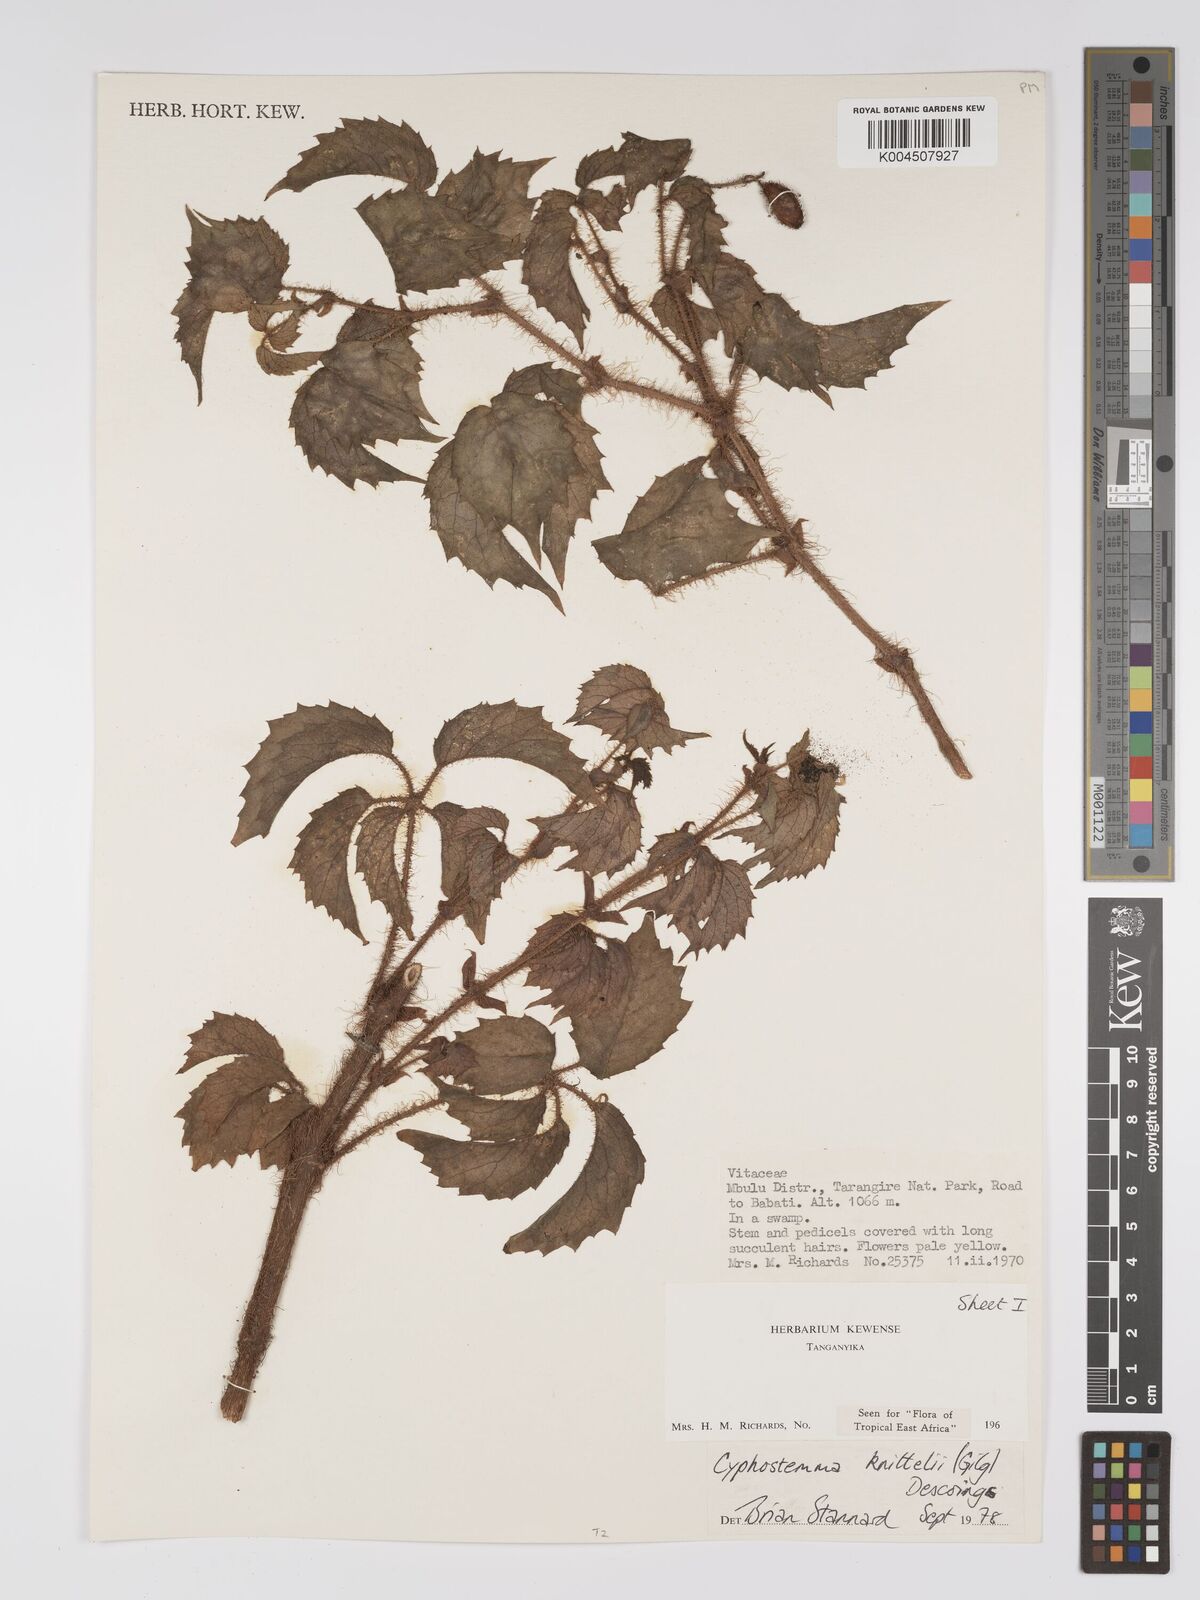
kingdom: Plantae
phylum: Tracheophyta
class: Magnoliopsida
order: Vitales
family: Vitaceae
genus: Cyphostemma
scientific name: Cyphostemma knittelii
